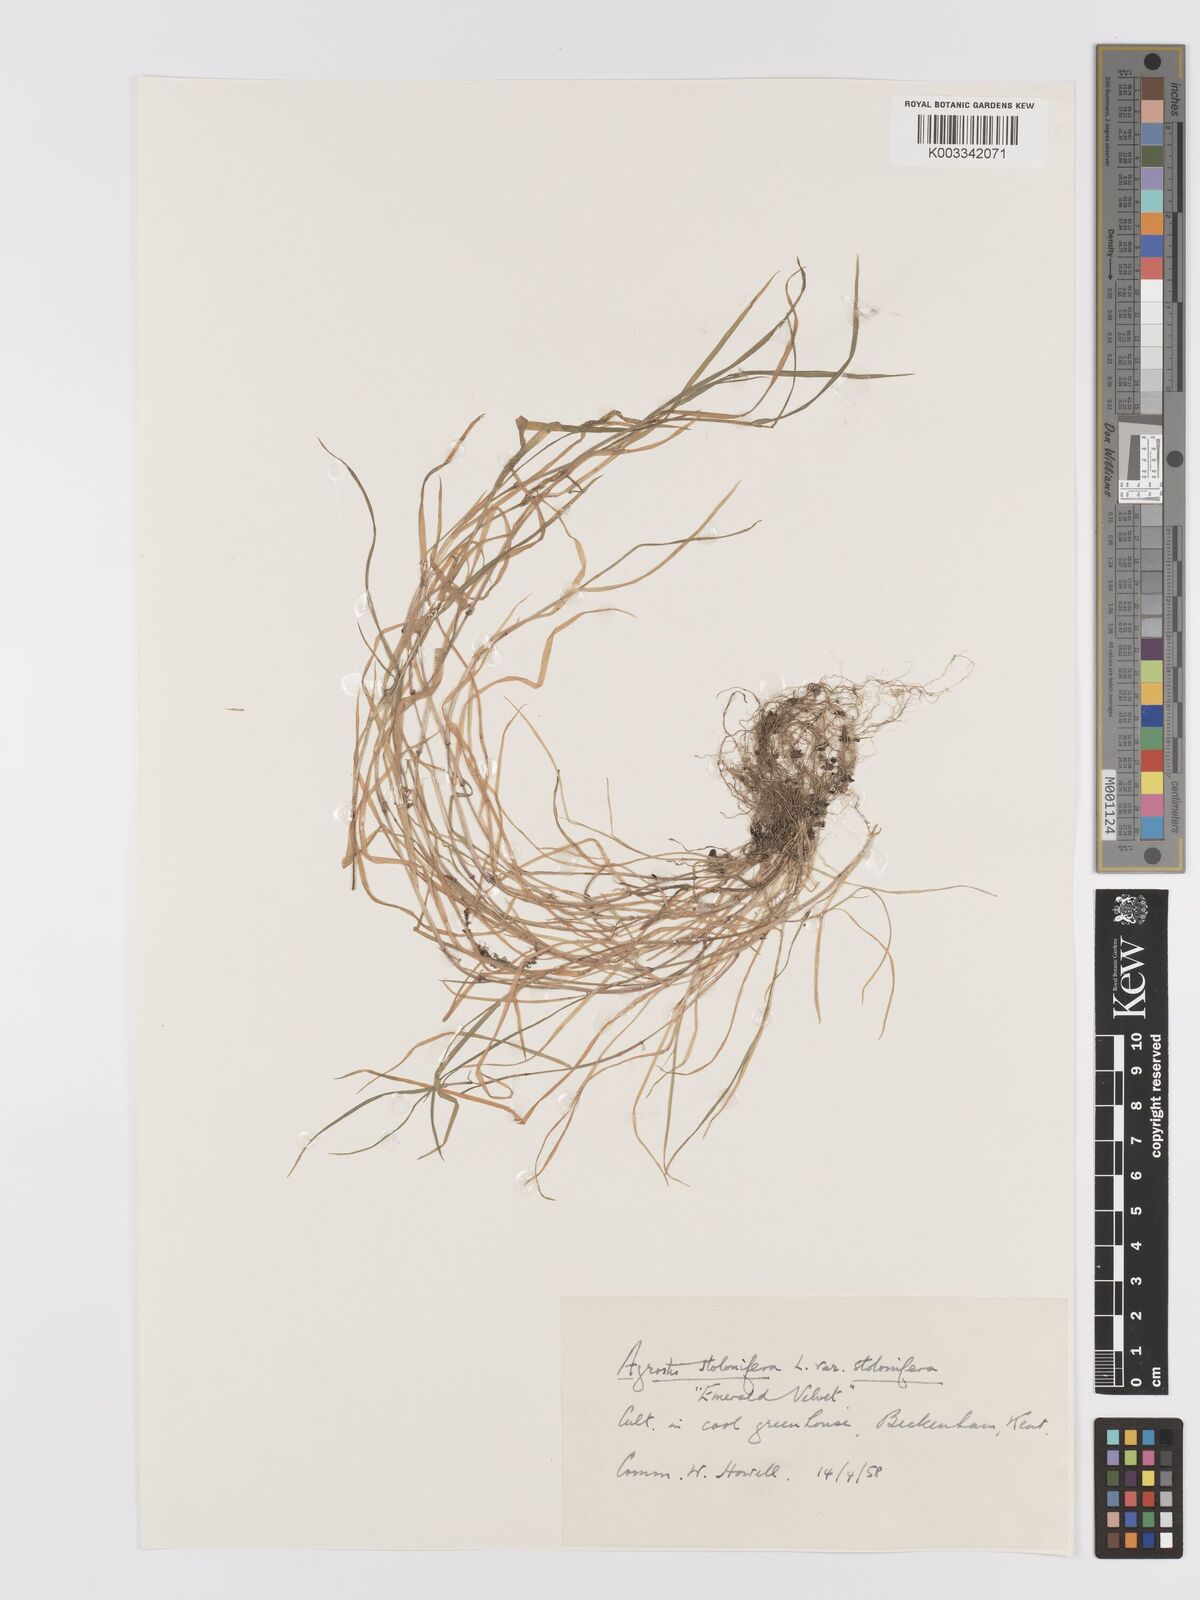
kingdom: Plantae
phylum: Tracheophyta
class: Liliopsida
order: Poales
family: Poaceae
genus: Agrostis
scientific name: Agrostis stolonifera
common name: Creeping bentgrass
